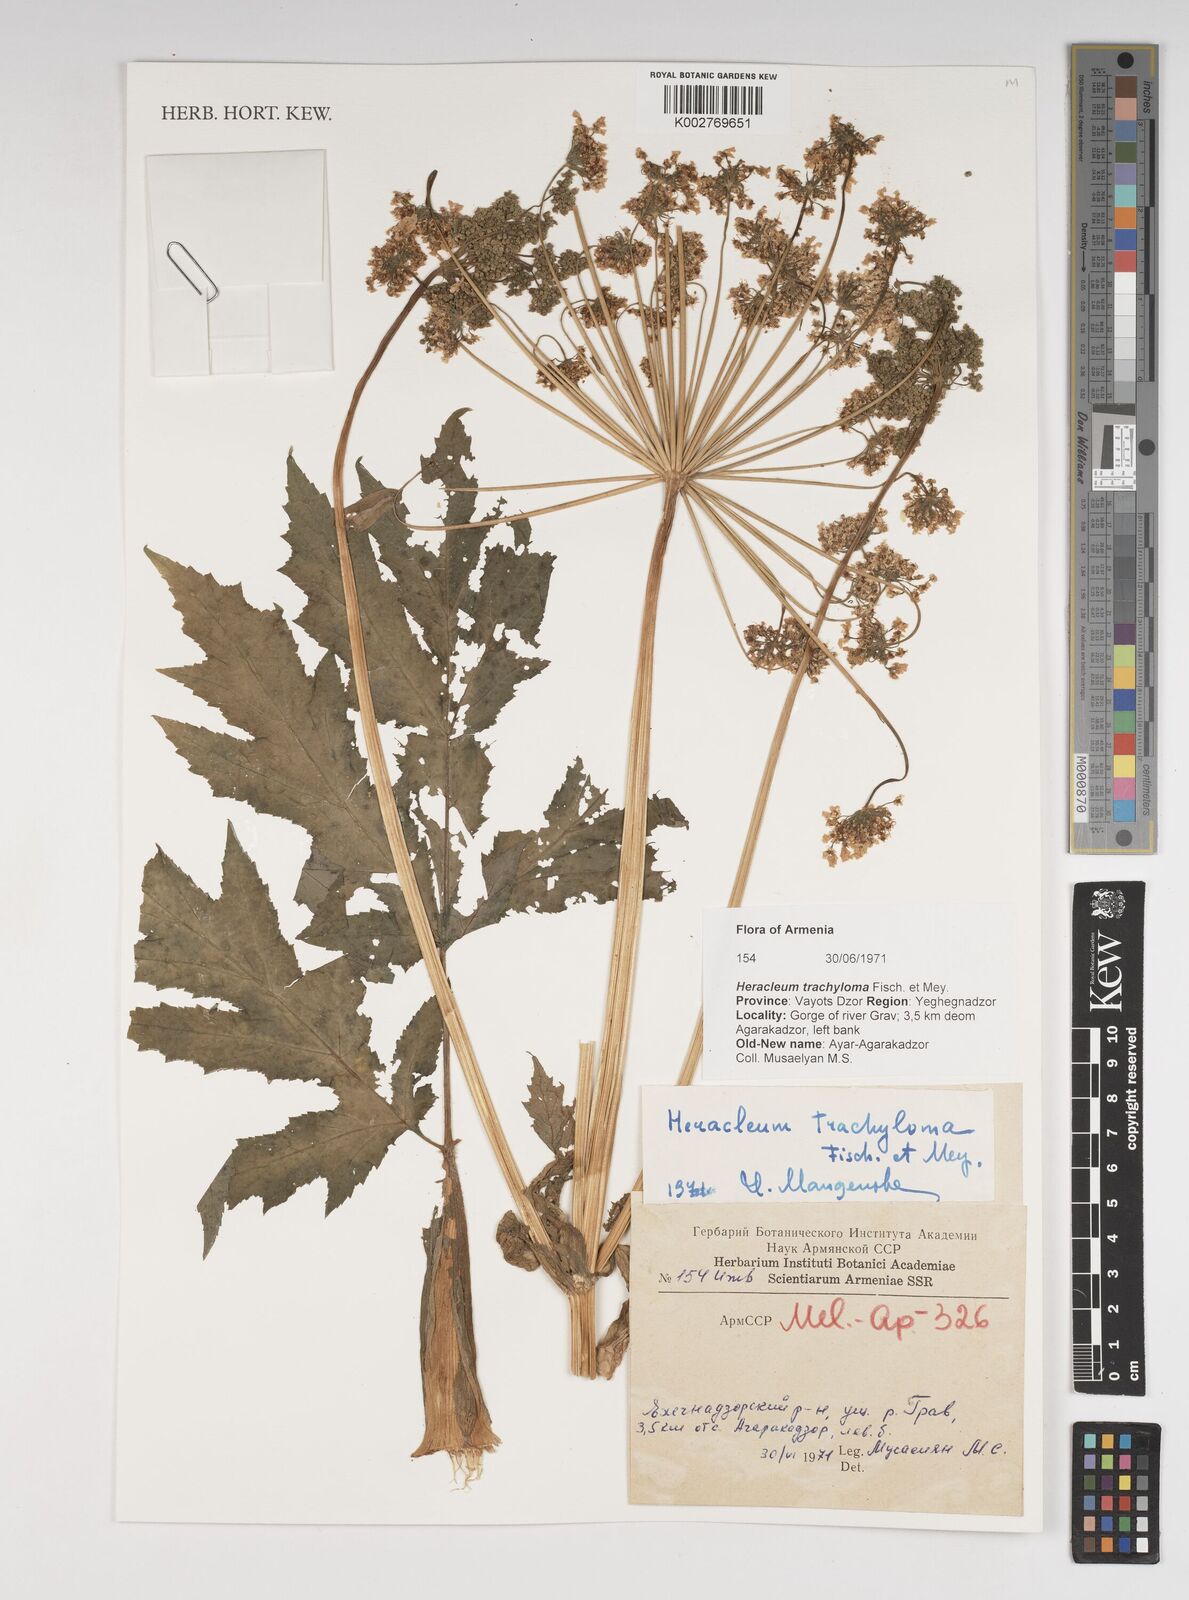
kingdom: Plantae
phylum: Tracheophyta
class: Magnoliopsida
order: Apiales
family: Apiaceae
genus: Heracleum
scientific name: Heracleum trachyloma
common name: Downy cow-parsnip
